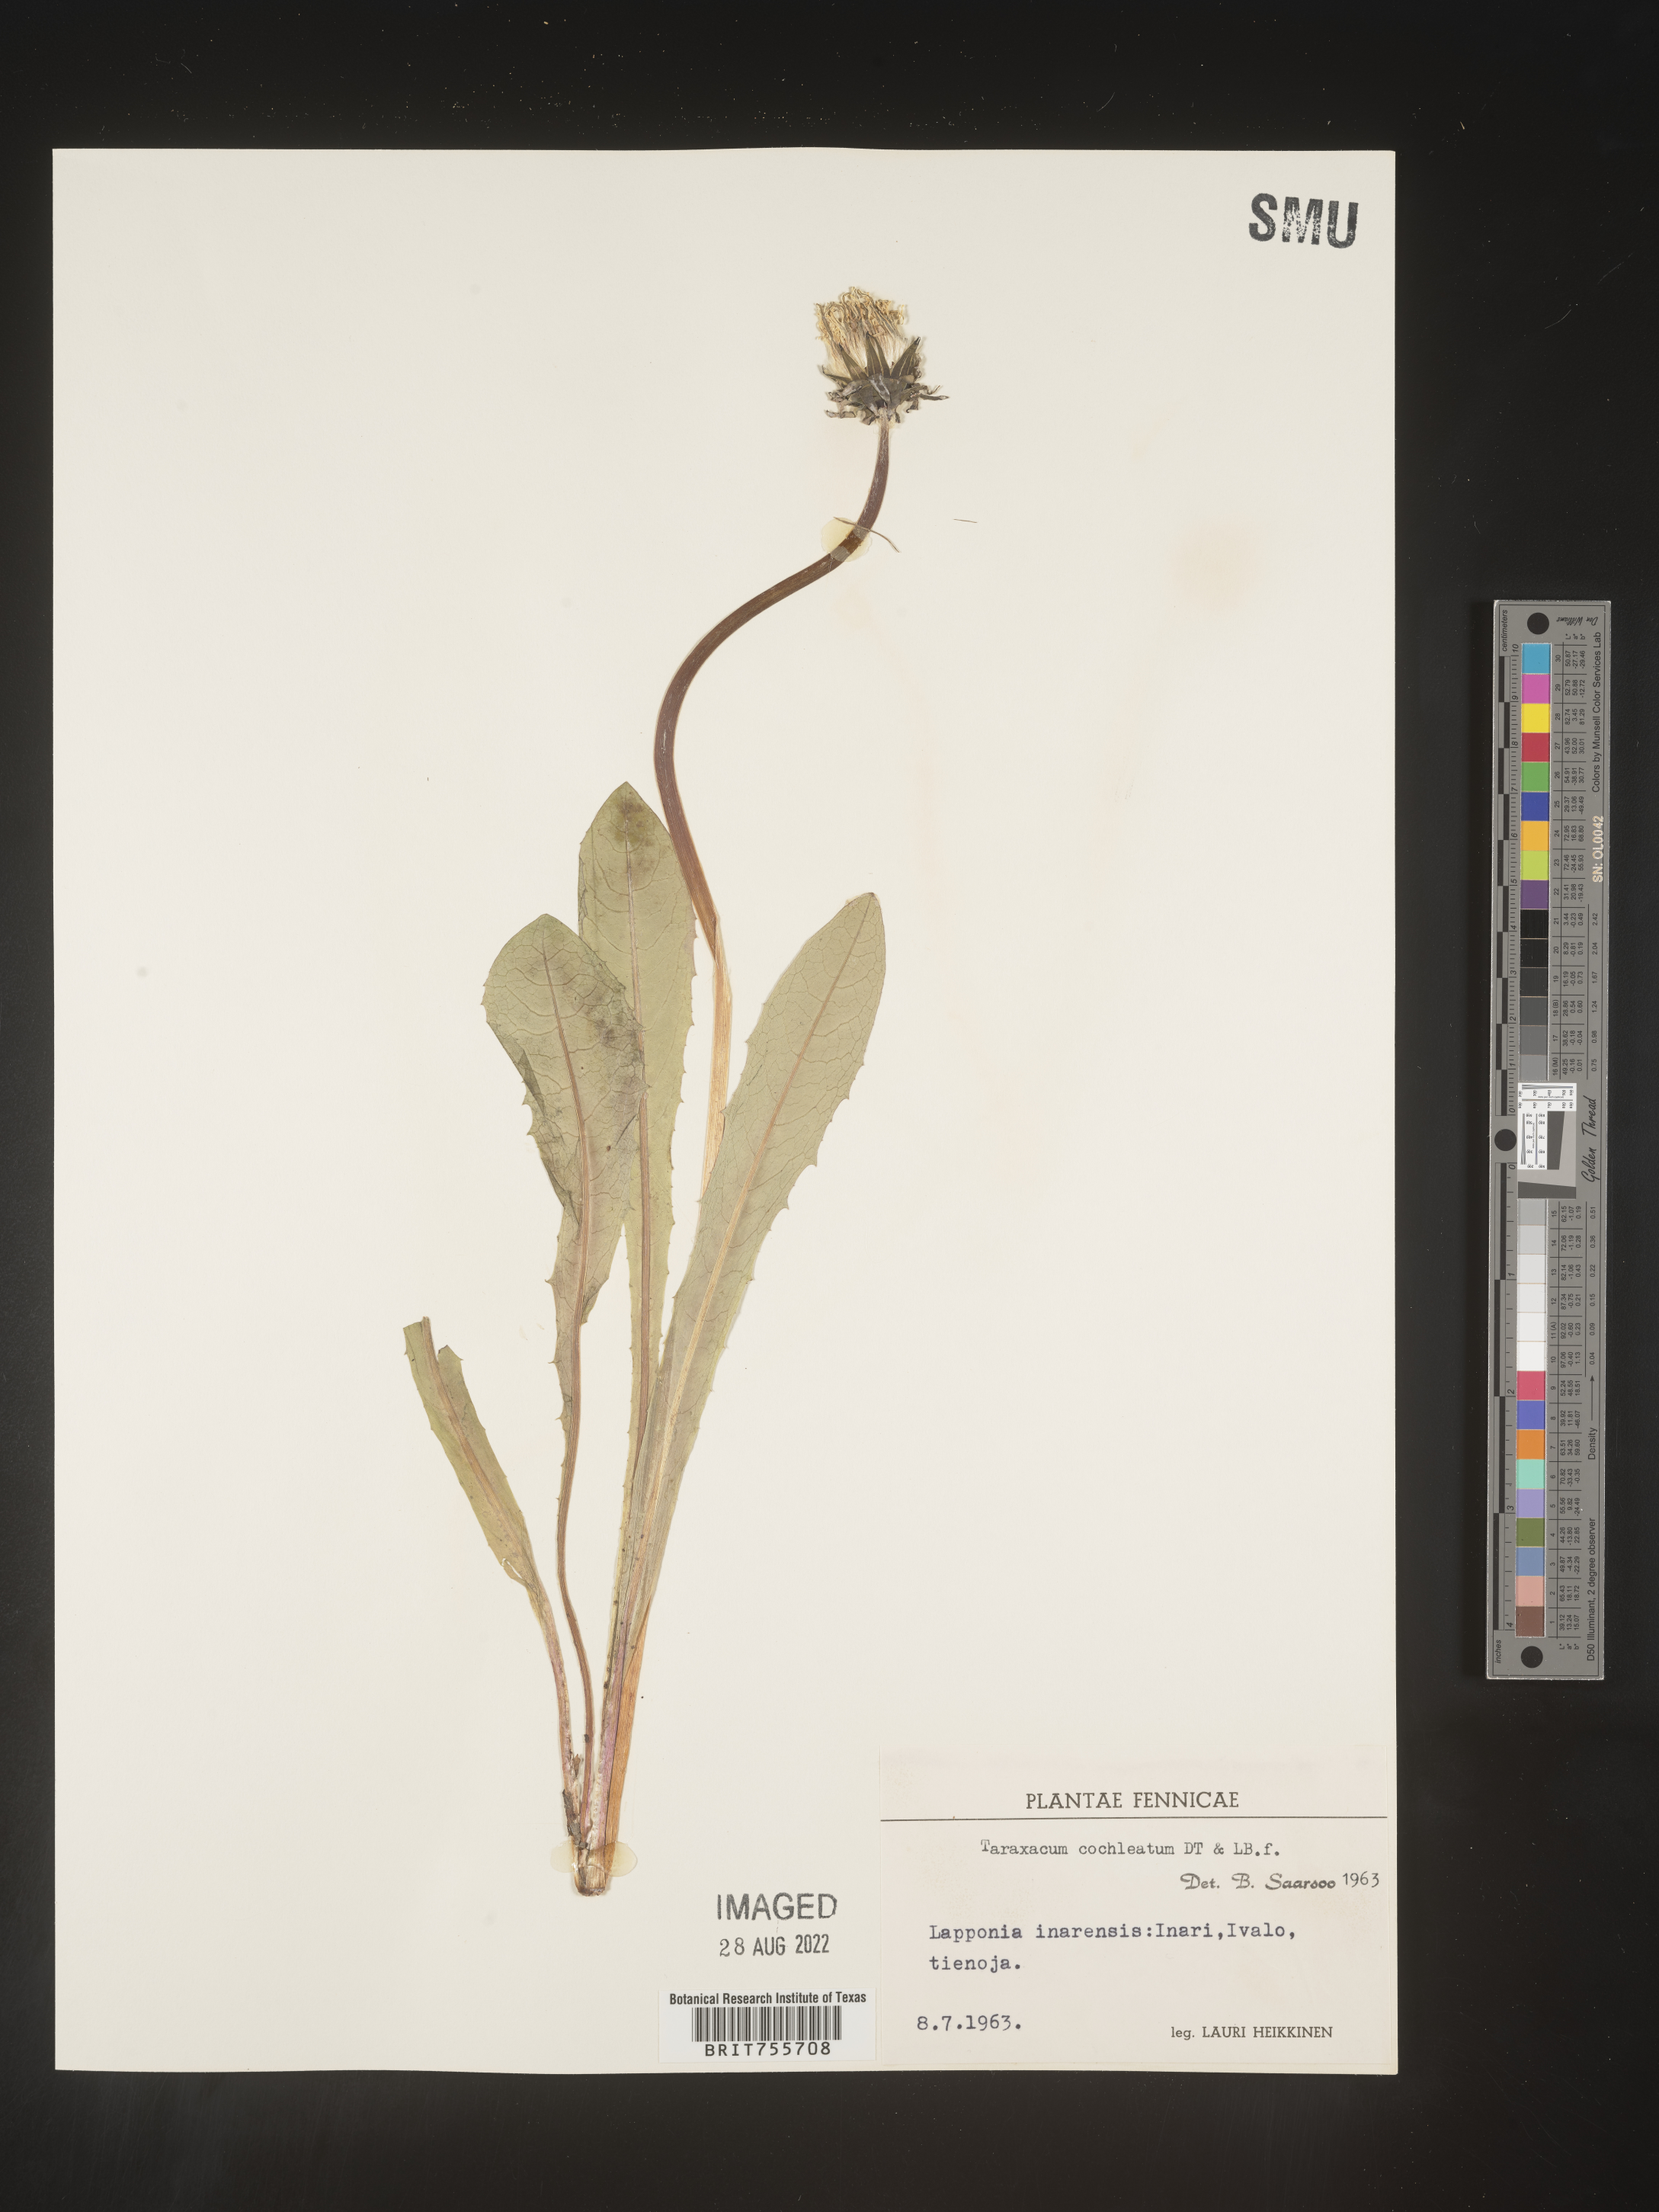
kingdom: Plantae
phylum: Tracheophyta
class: Magnoliopsida
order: Asterales
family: Asteraceae
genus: Taraxacum
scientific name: Taraxacum
